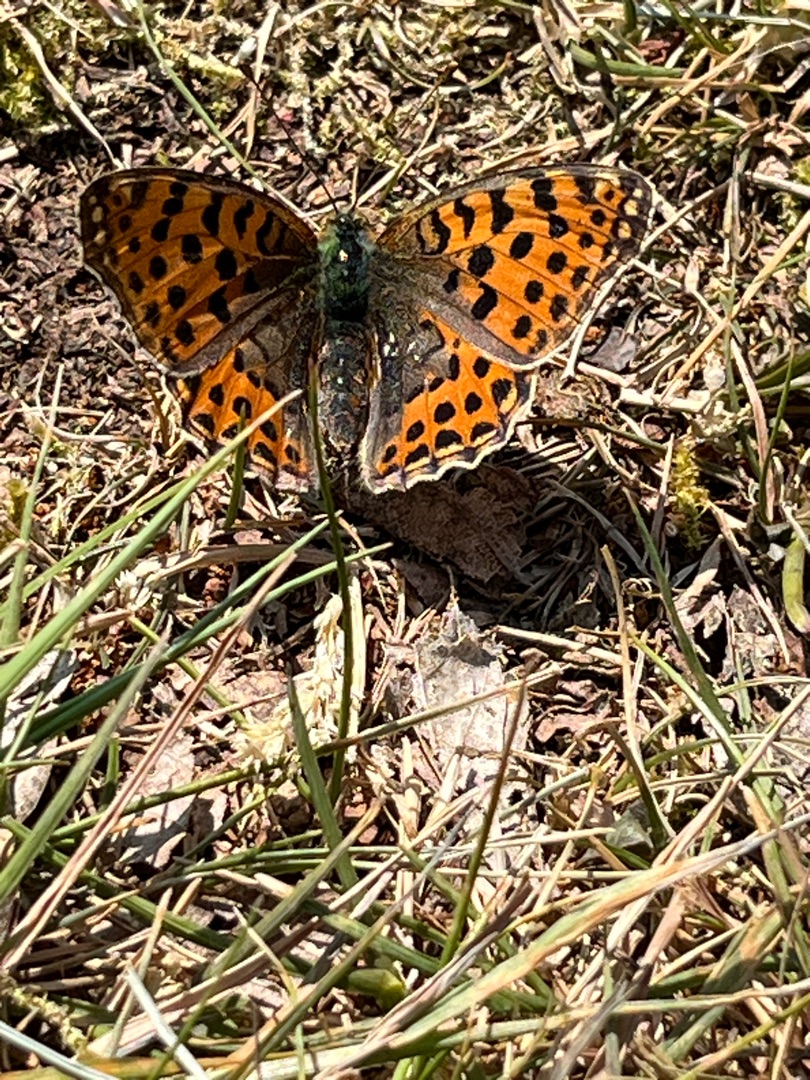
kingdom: Animalia
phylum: Arthropoda
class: Insecta
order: Lepidoptera
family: Nymphalidae
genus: Issoria
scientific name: Issoria lathonia
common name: Storplettet perlemorsommerfugl
